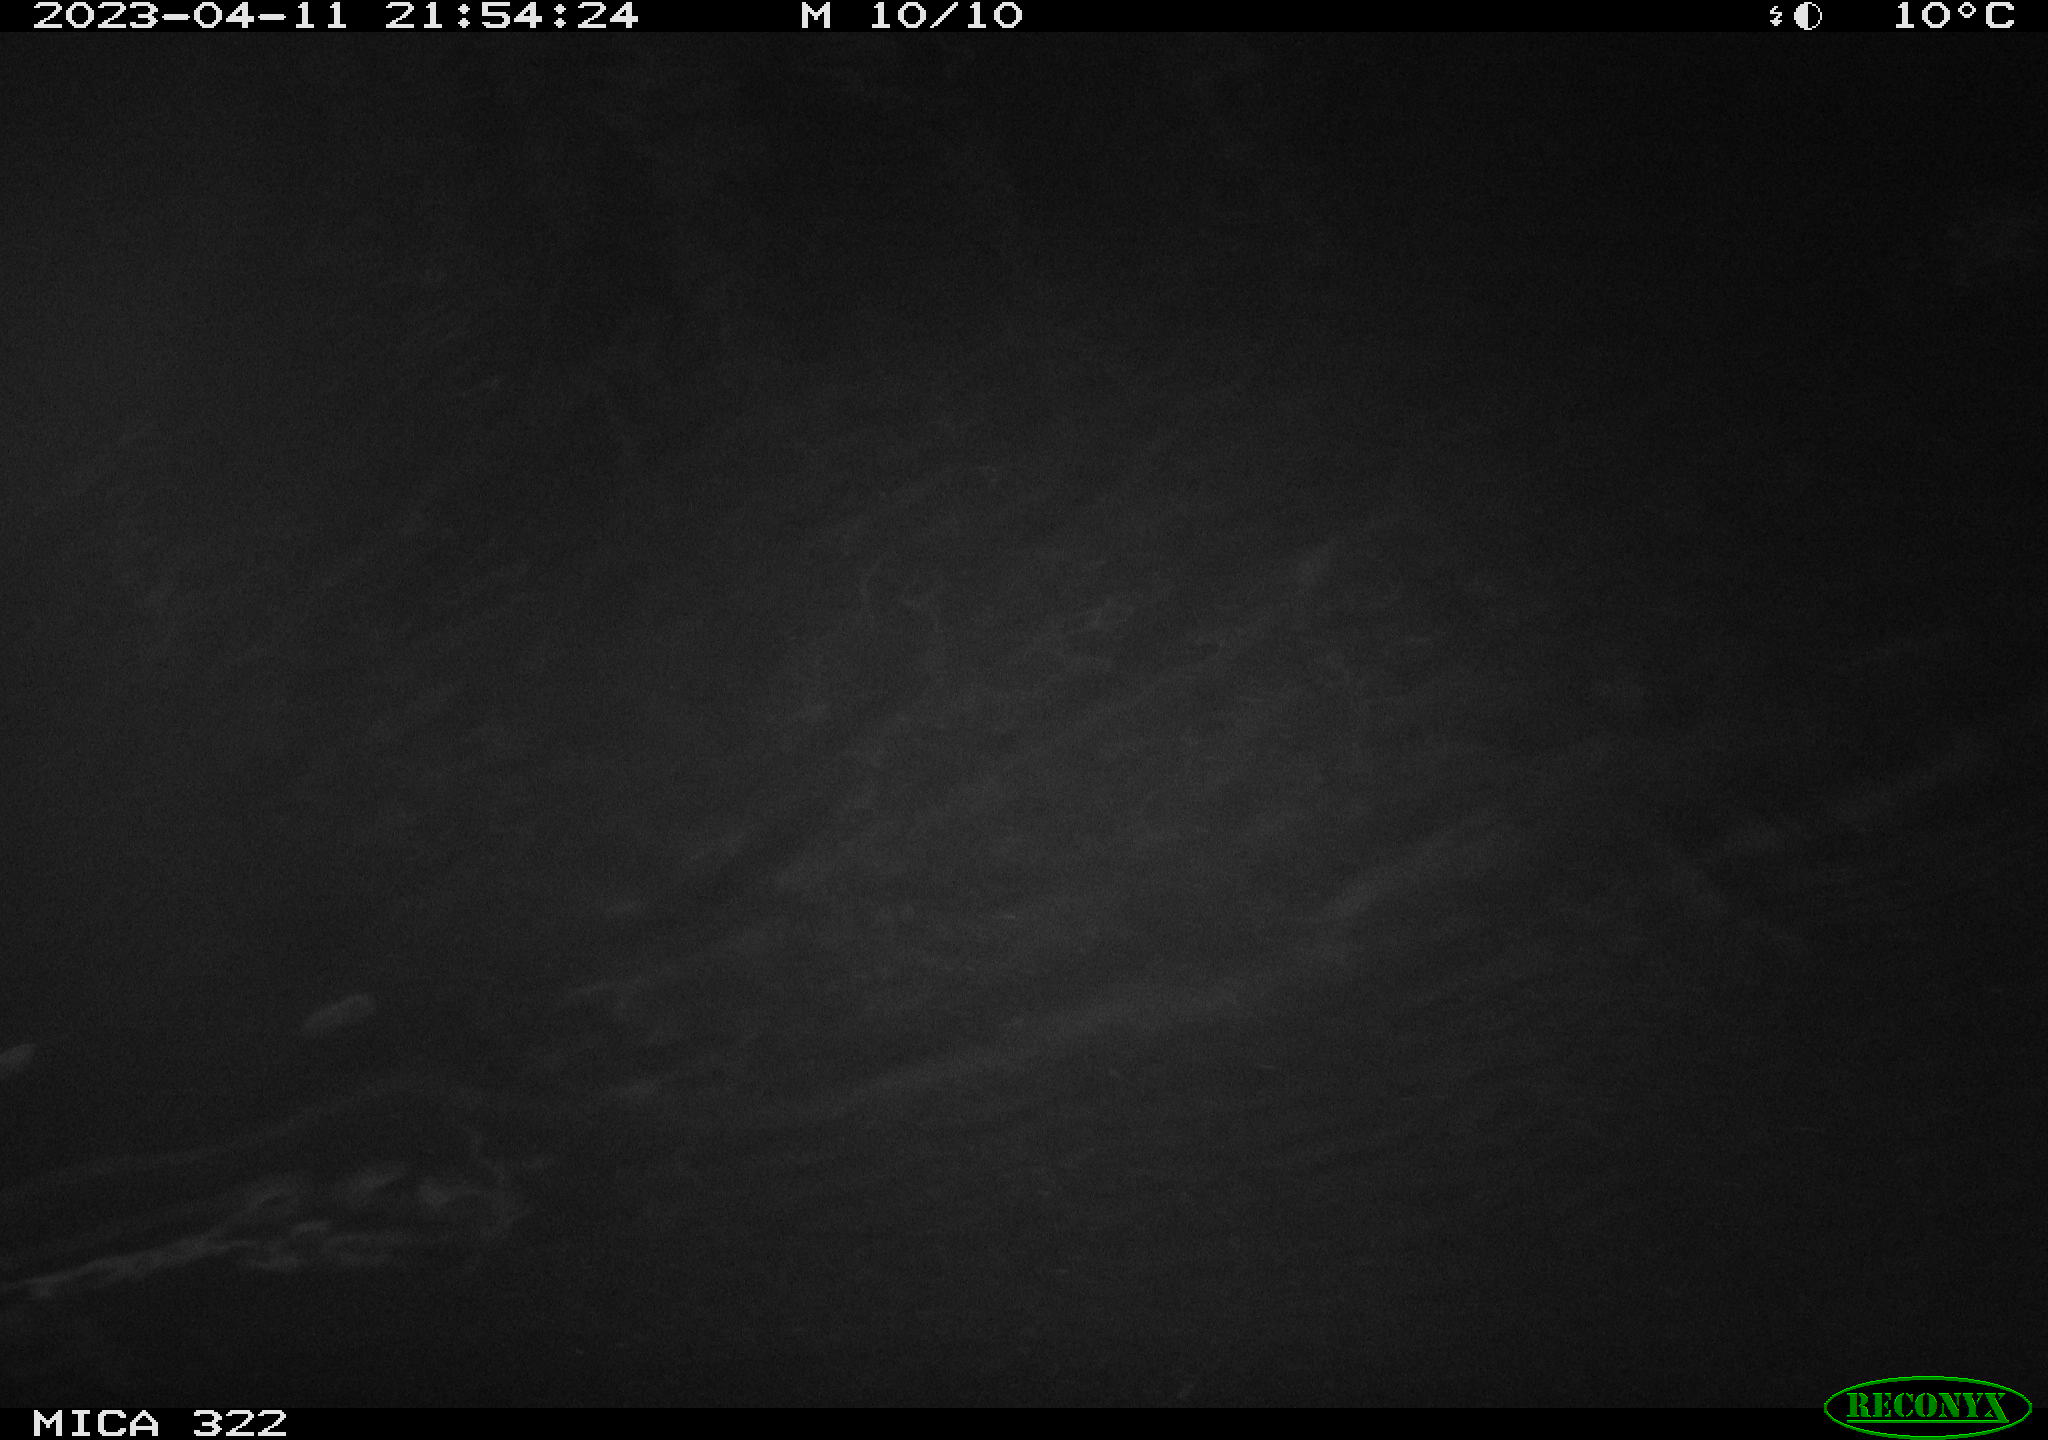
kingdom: Animalia
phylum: Chordata
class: Aves
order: Anseriformes
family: Anatidae
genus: Anas
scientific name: Anas
